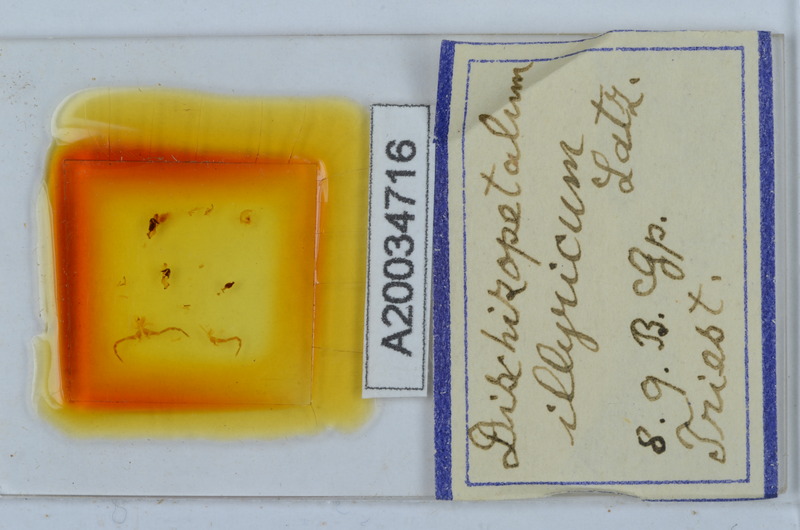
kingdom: Animalia
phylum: Arthropoda
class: Diplopoda
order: Callipodida
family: Schizopetalidae
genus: Callipodella
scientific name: Callipodella
